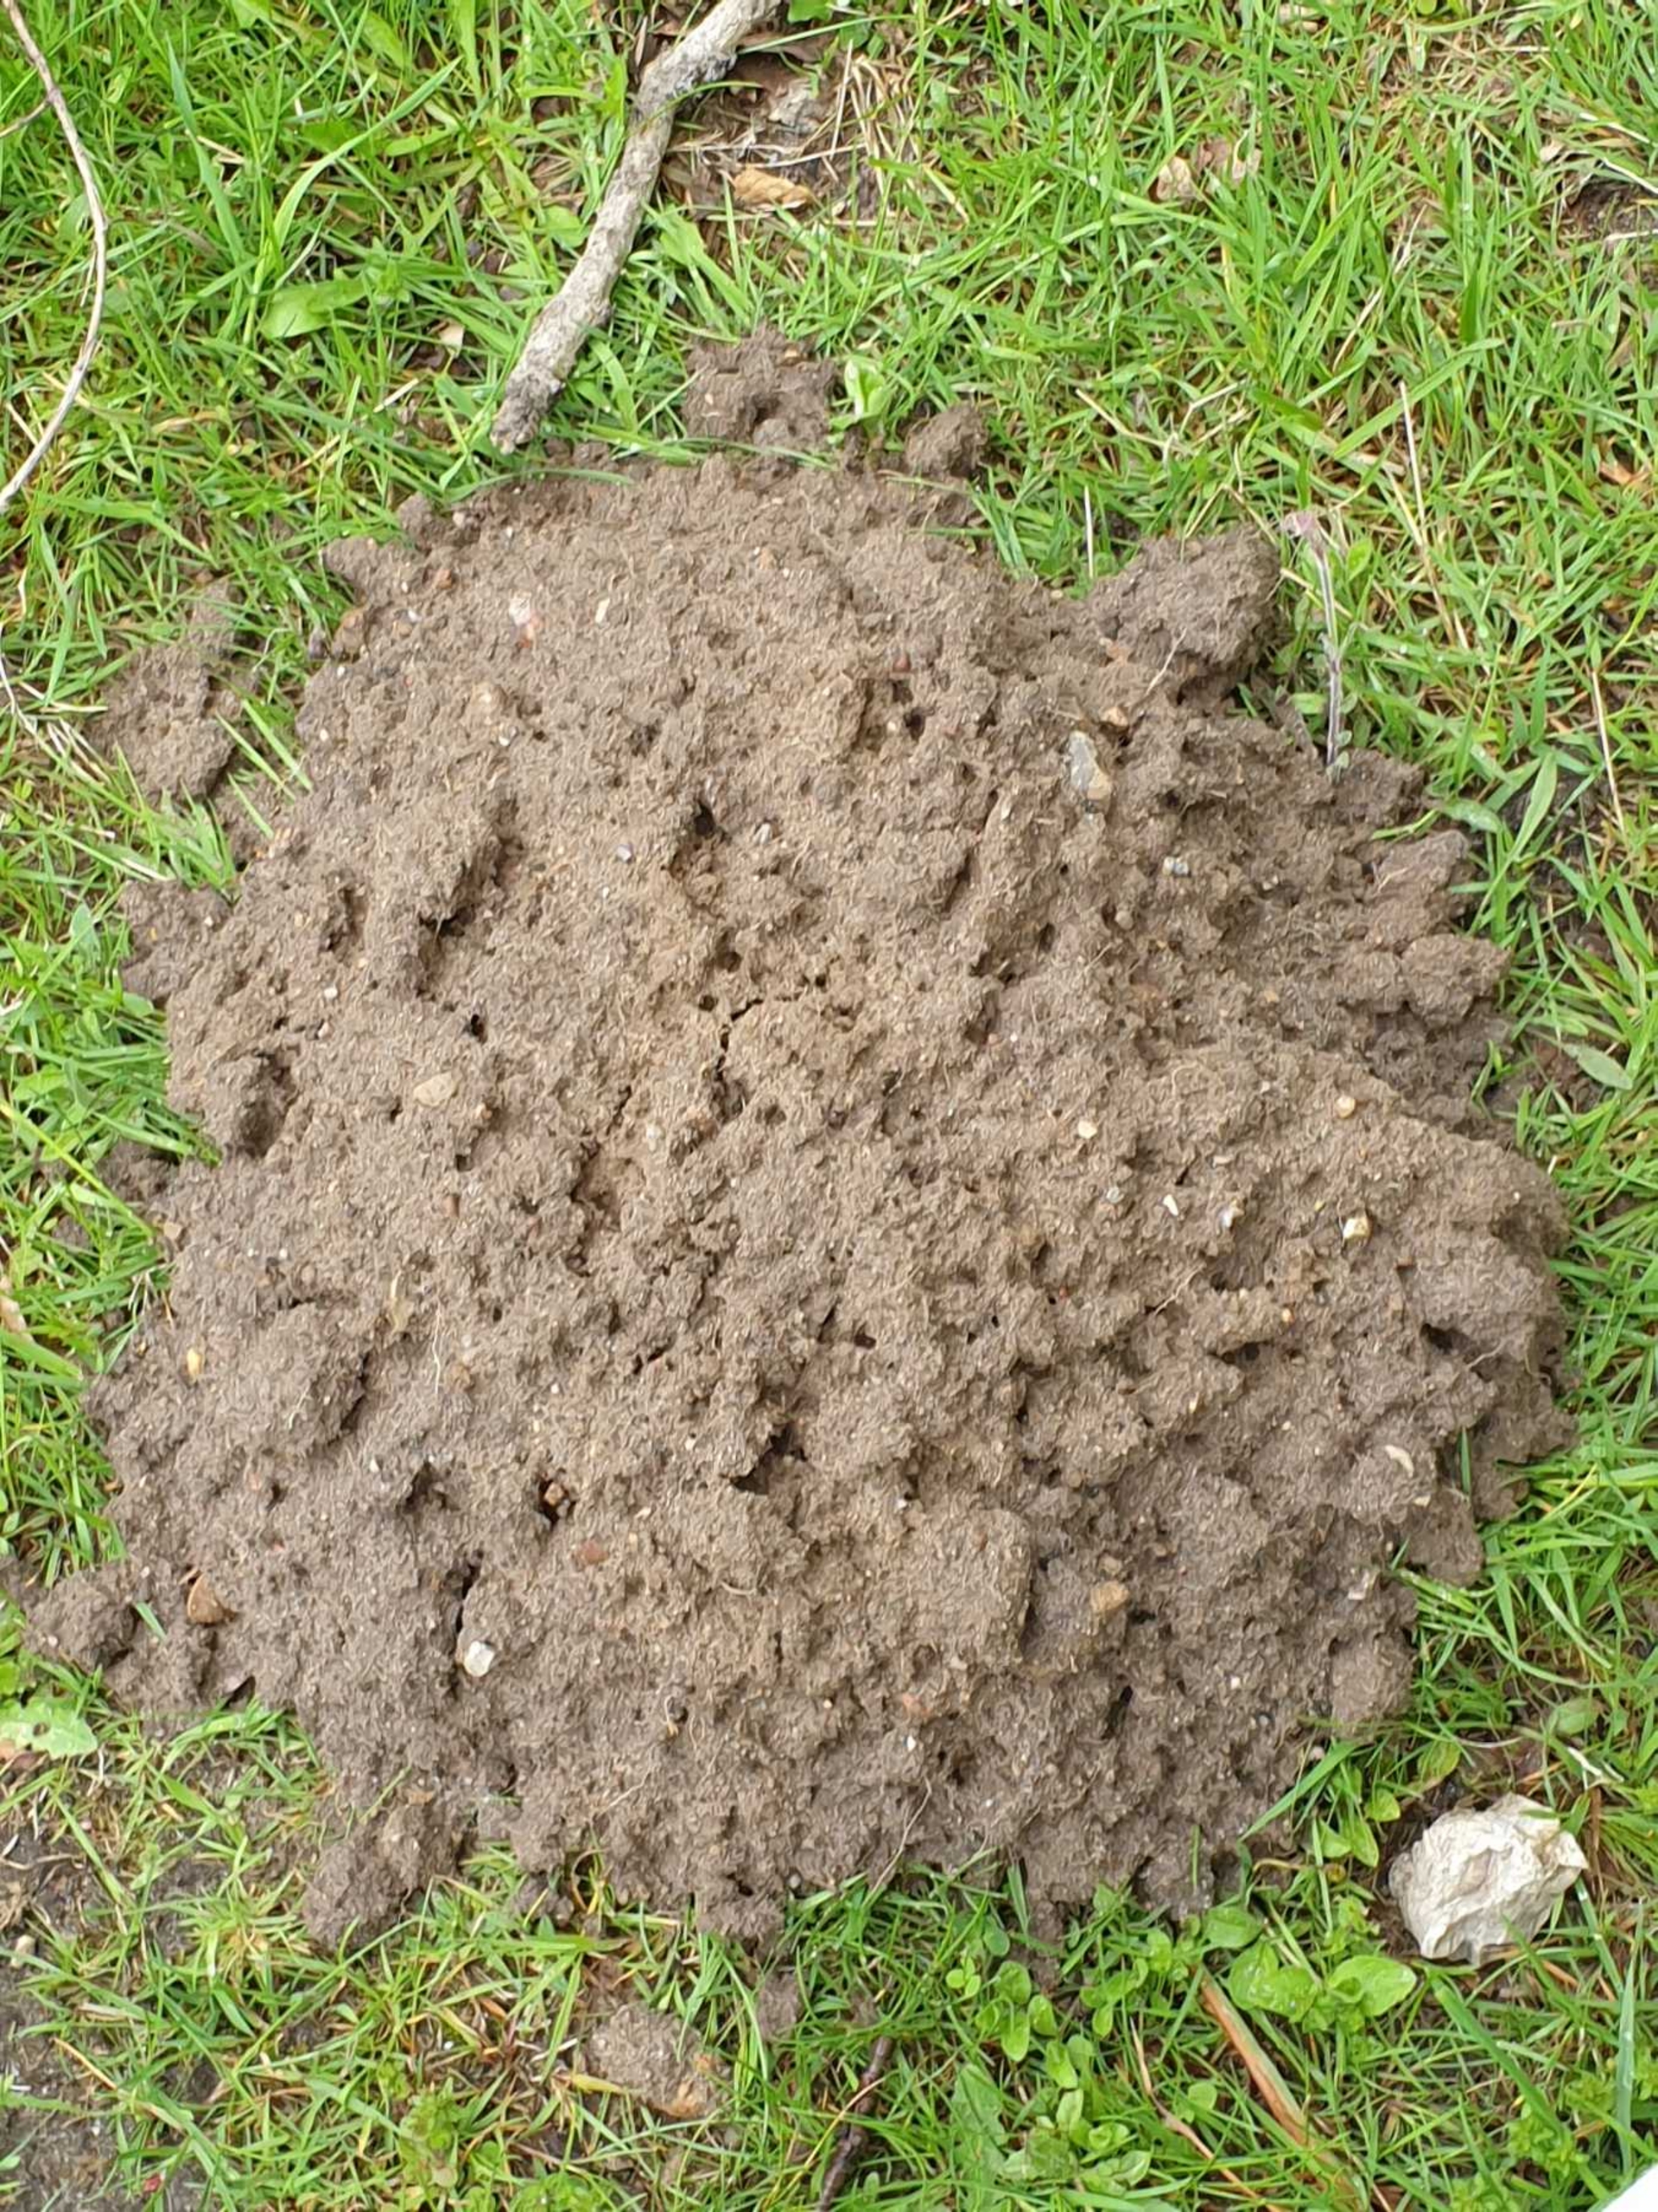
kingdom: Animalia
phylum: Chordata
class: Mammalia
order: Soricomorpha
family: Talpidae
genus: Talpa
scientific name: Talpa europaea
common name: Muldvarp
